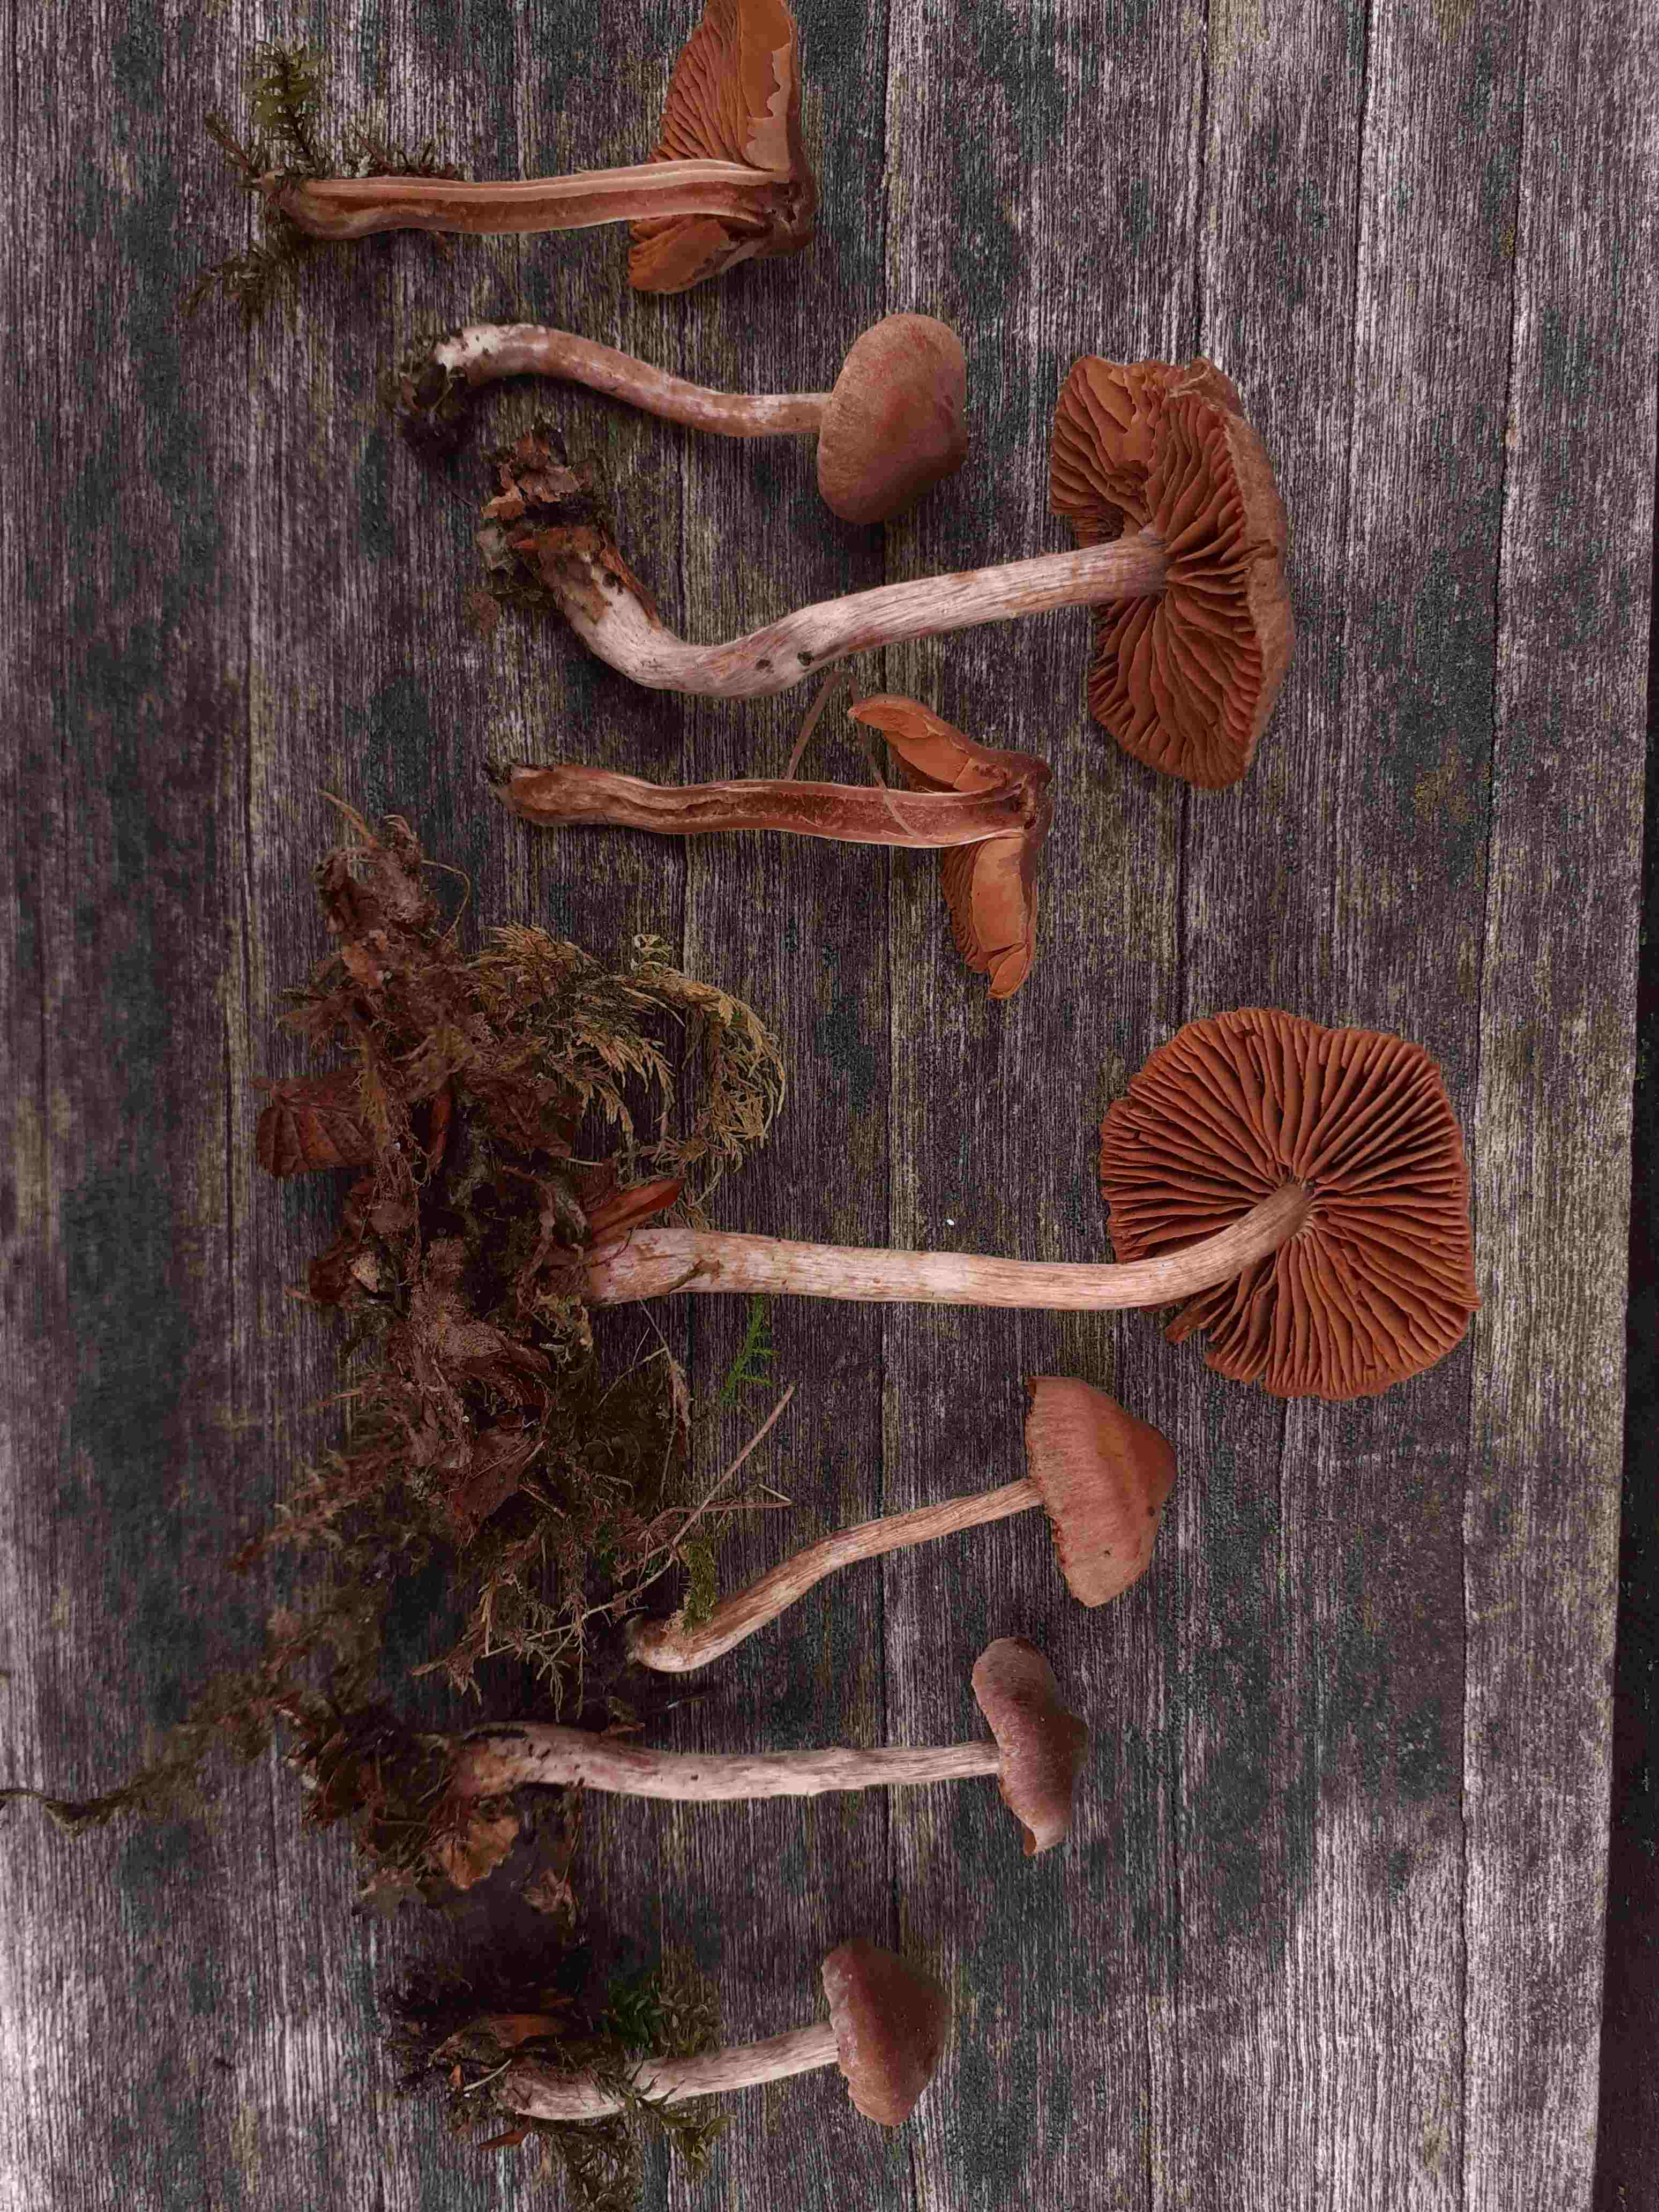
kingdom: Fungi
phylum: Basidiomycota
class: Agaricomycetes
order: Agaricales
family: Cortinariaceae
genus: Cortinarius
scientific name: Cortinarius hirtus
